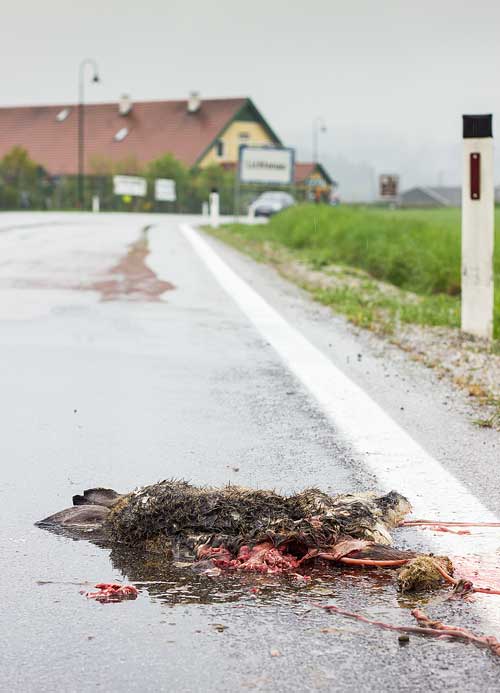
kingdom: Animalia
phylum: Chordata
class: Mammalia
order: Lagomorpha
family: Leporidae
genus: Lepus
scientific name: Lepus europaeus
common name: European hare
